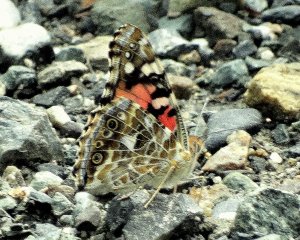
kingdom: Animalia
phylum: Arthropoda
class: Insecta
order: Lepidoptera
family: Nymphalidae
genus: Vanessa
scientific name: Vanessa cardui
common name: Painted Lady
